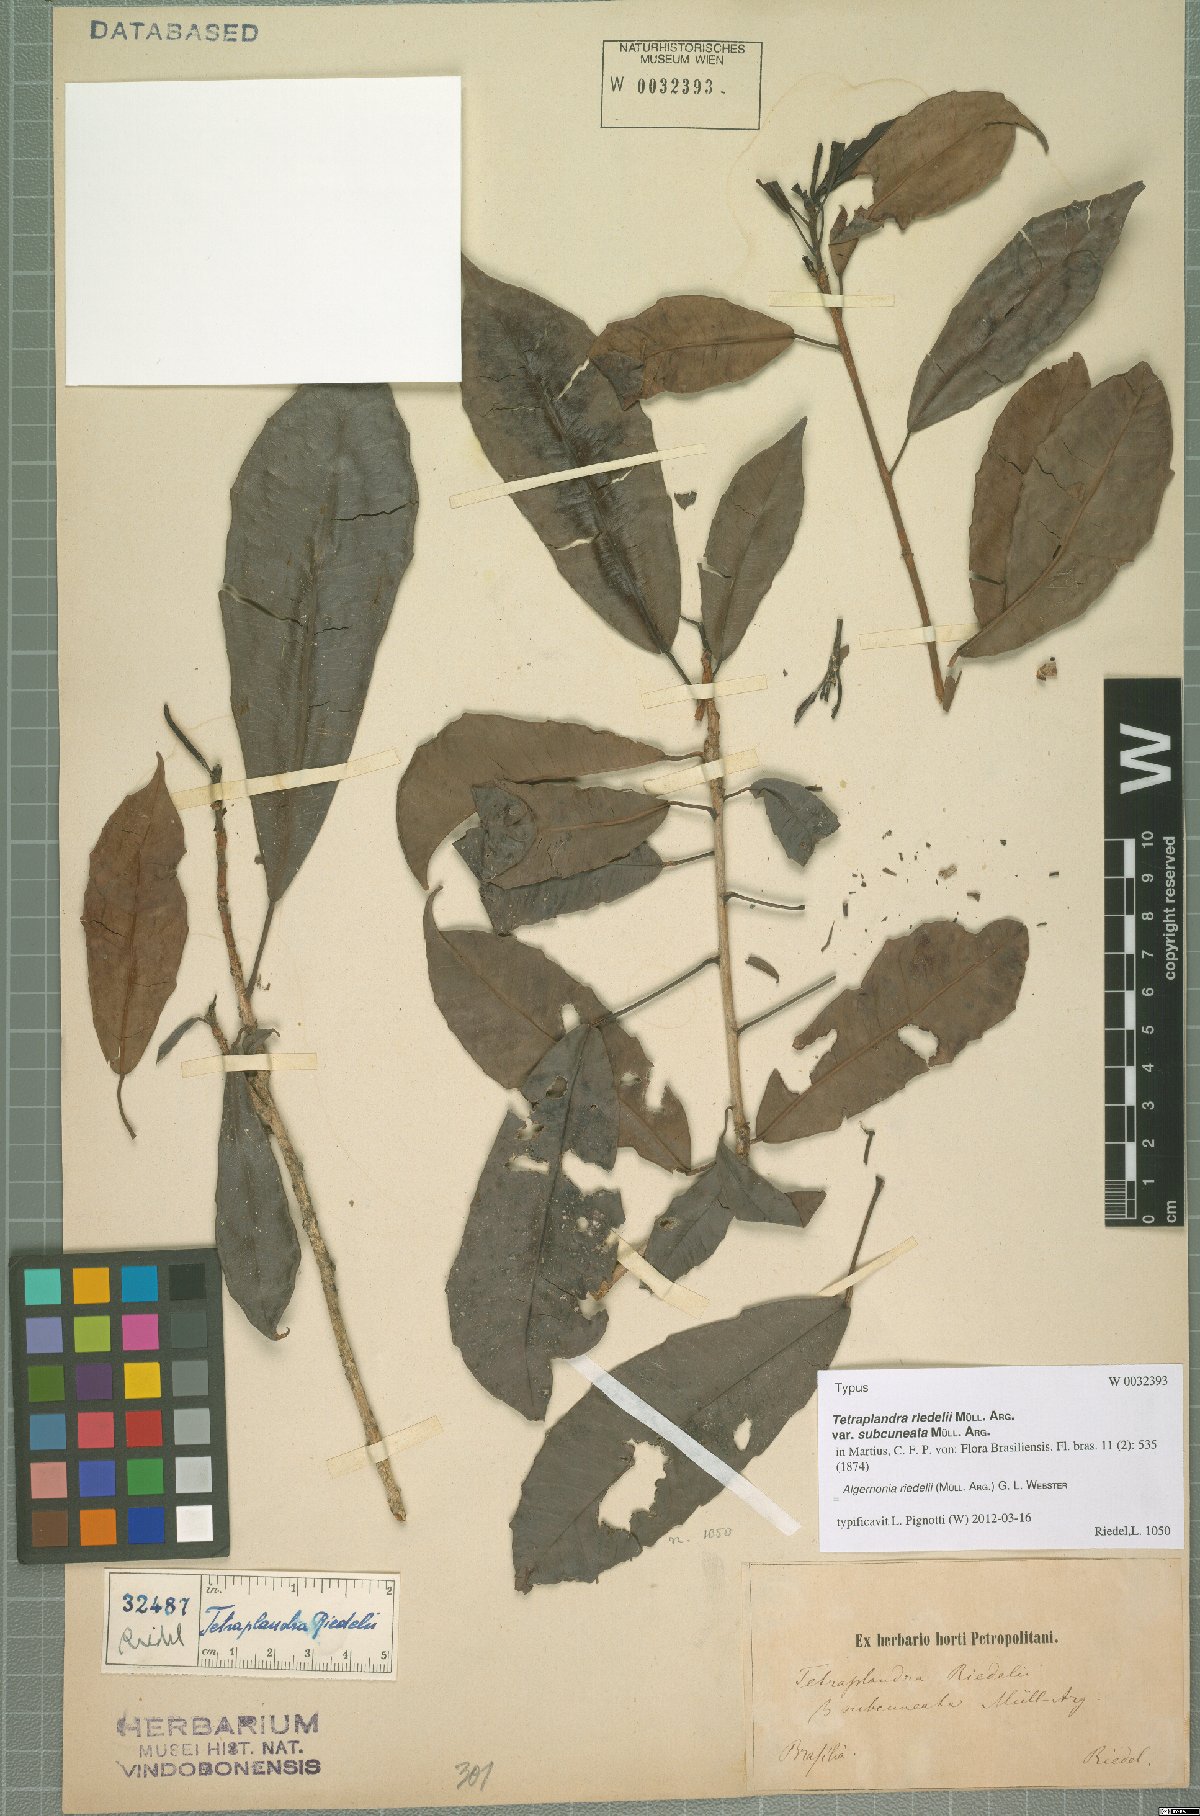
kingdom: Plantae
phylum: Tracheophyta
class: Magnoliopsida
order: Malpighiales
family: Euphorbiaceae
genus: Algernonia
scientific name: Algernonia riedelii
